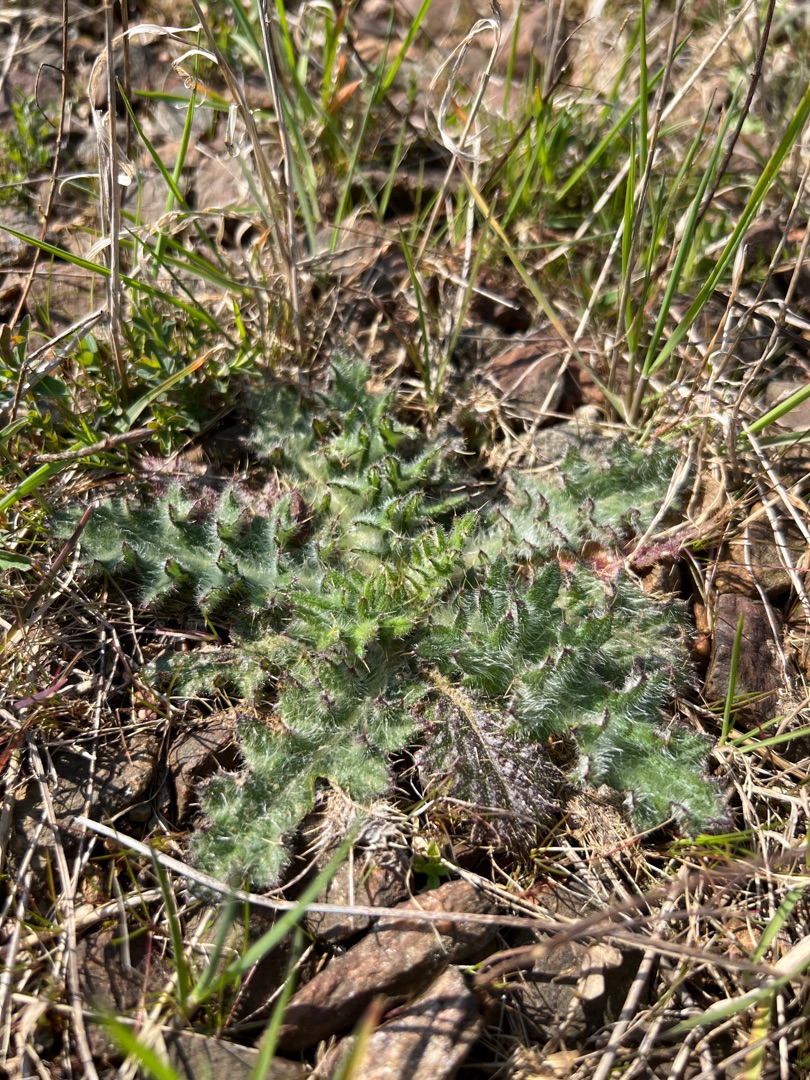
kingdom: Plantae
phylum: Tracheophyta
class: Magnoliopsida
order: Asterales
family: Asteraceae
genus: Cirsium
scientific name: Cirsium vulgare
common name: Horse-tidsel
